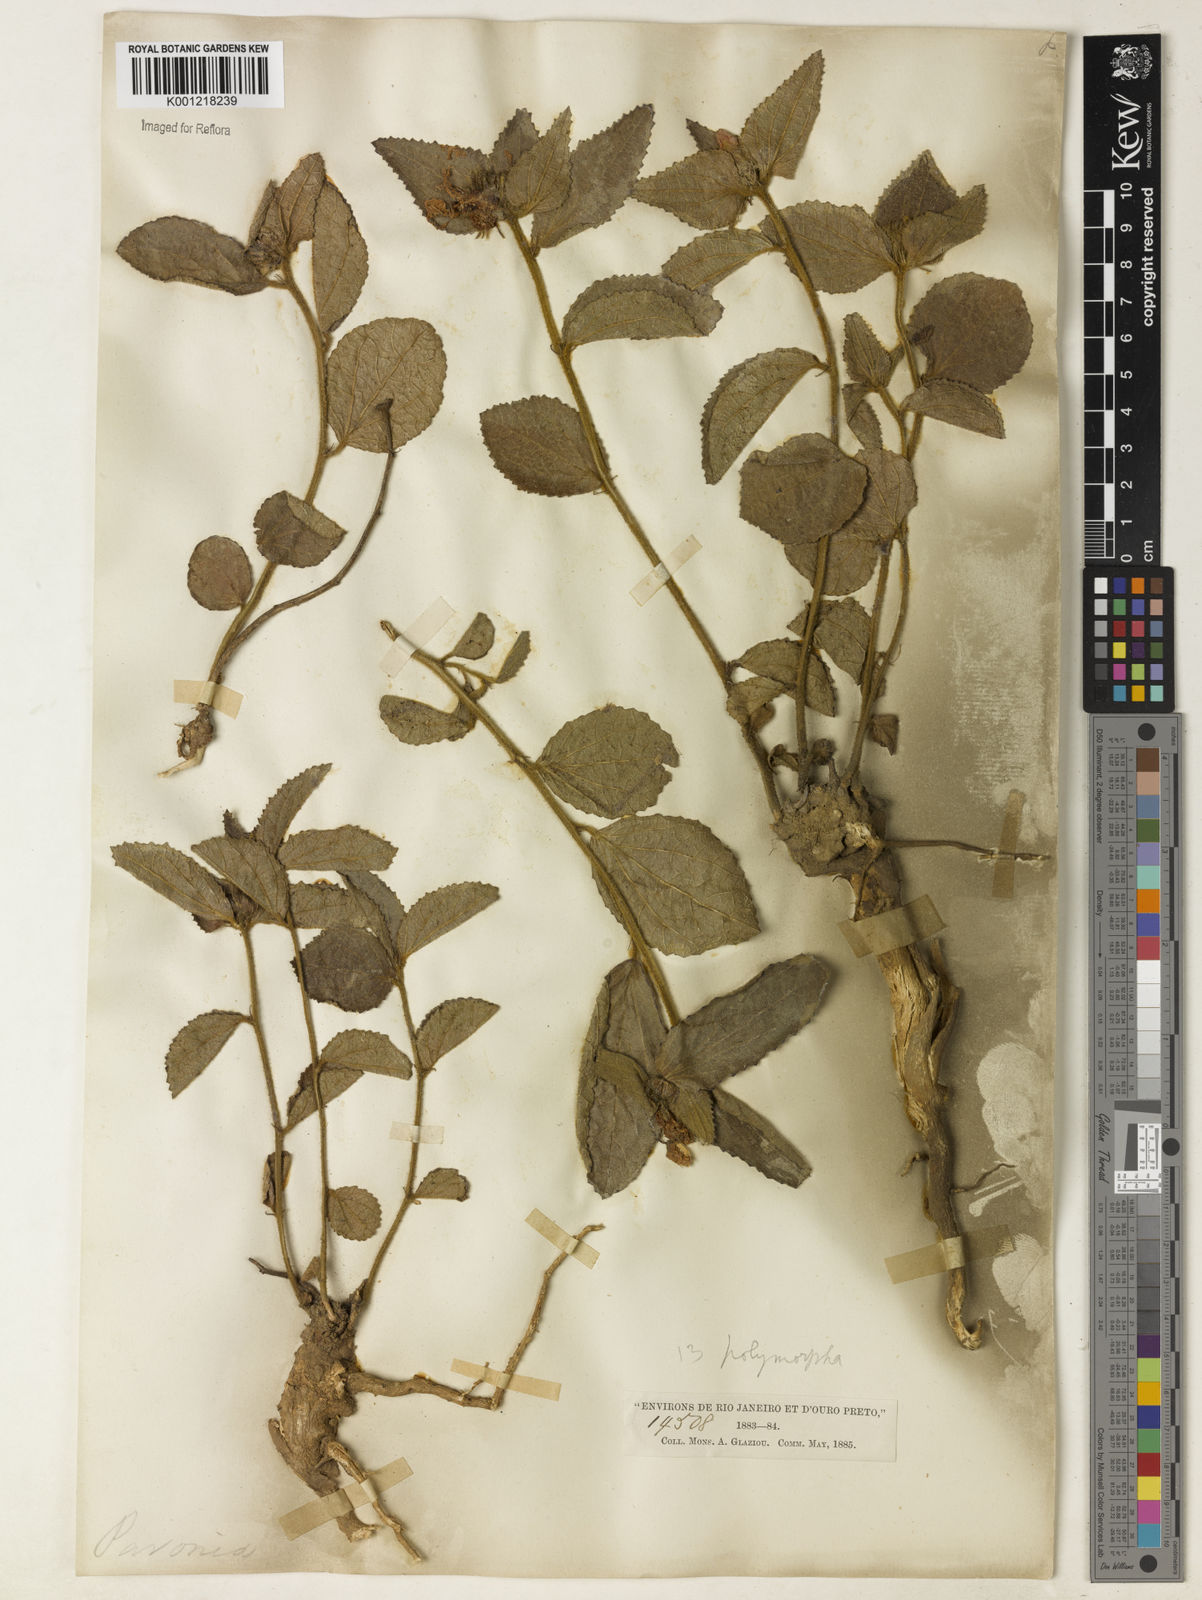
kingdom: Plantae
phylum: Tracheophyta
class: Magnoliopsida
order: Malvales
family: Malvaceae
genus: Peltaea
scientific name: Peltaea
